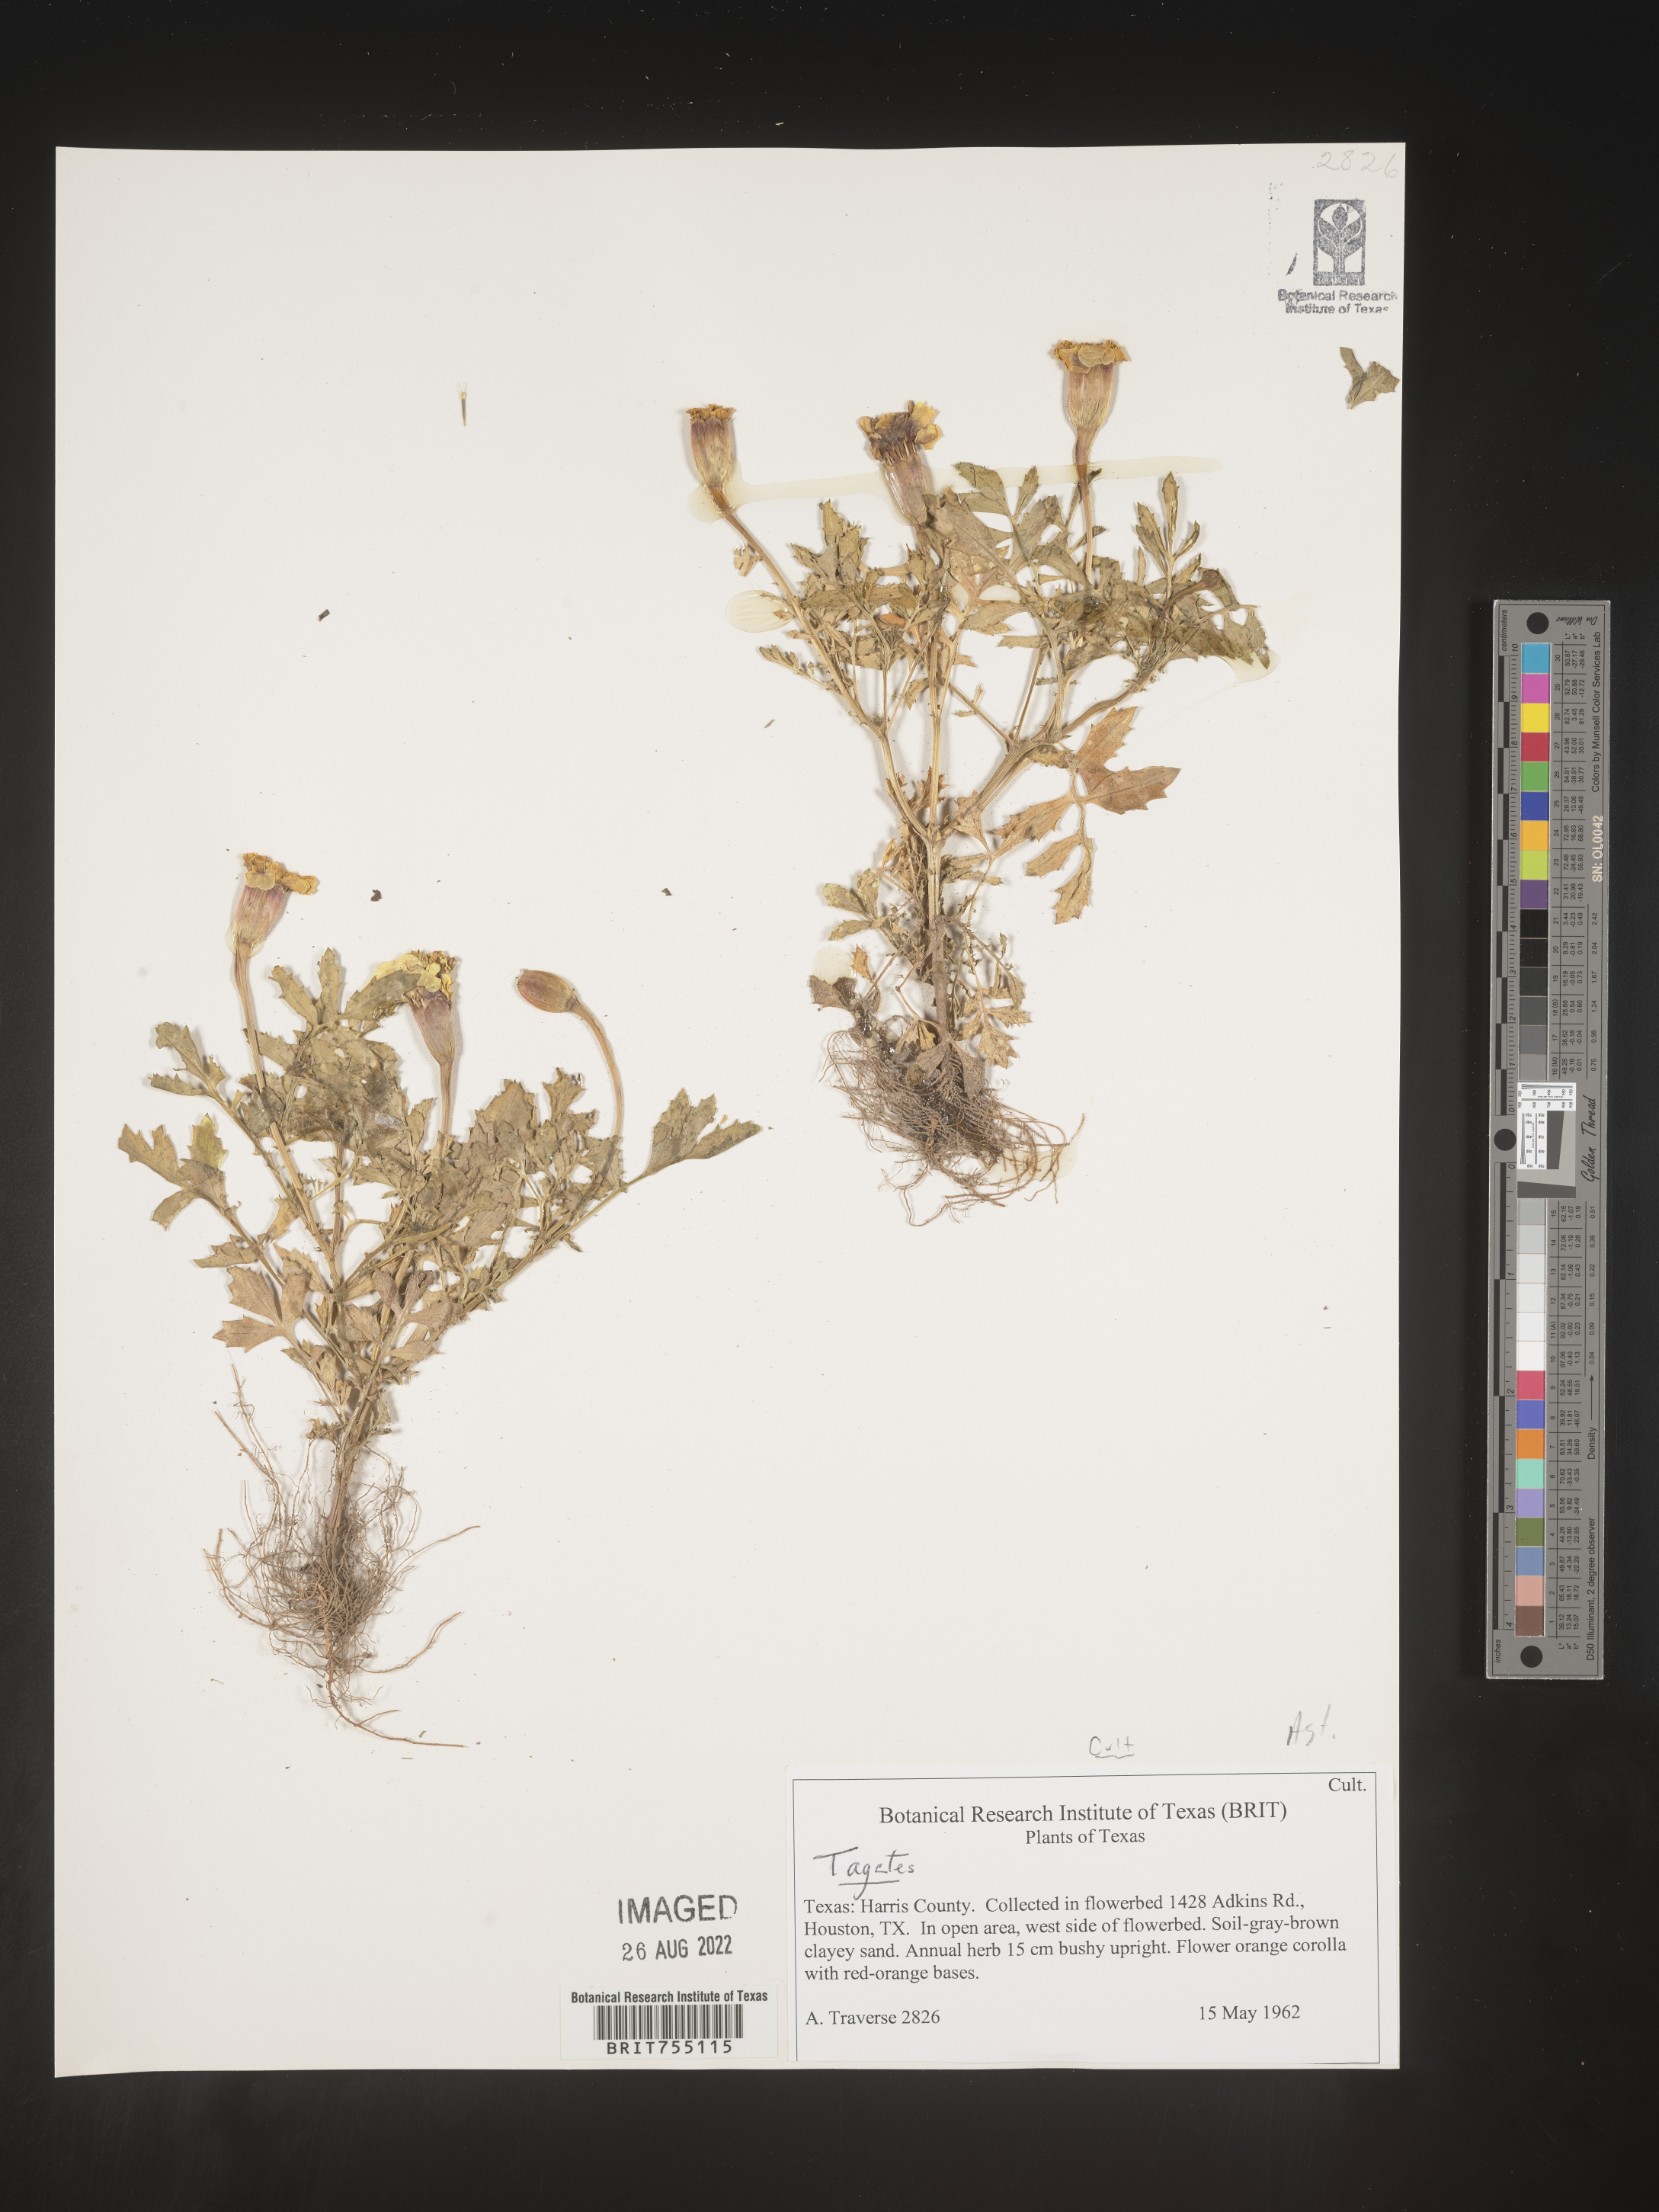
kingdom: Plantae
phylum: Tracheophyta
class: Magnoliopsida
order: Asterales
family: Asteraceae
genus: Tagetes
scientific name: Tagetes
